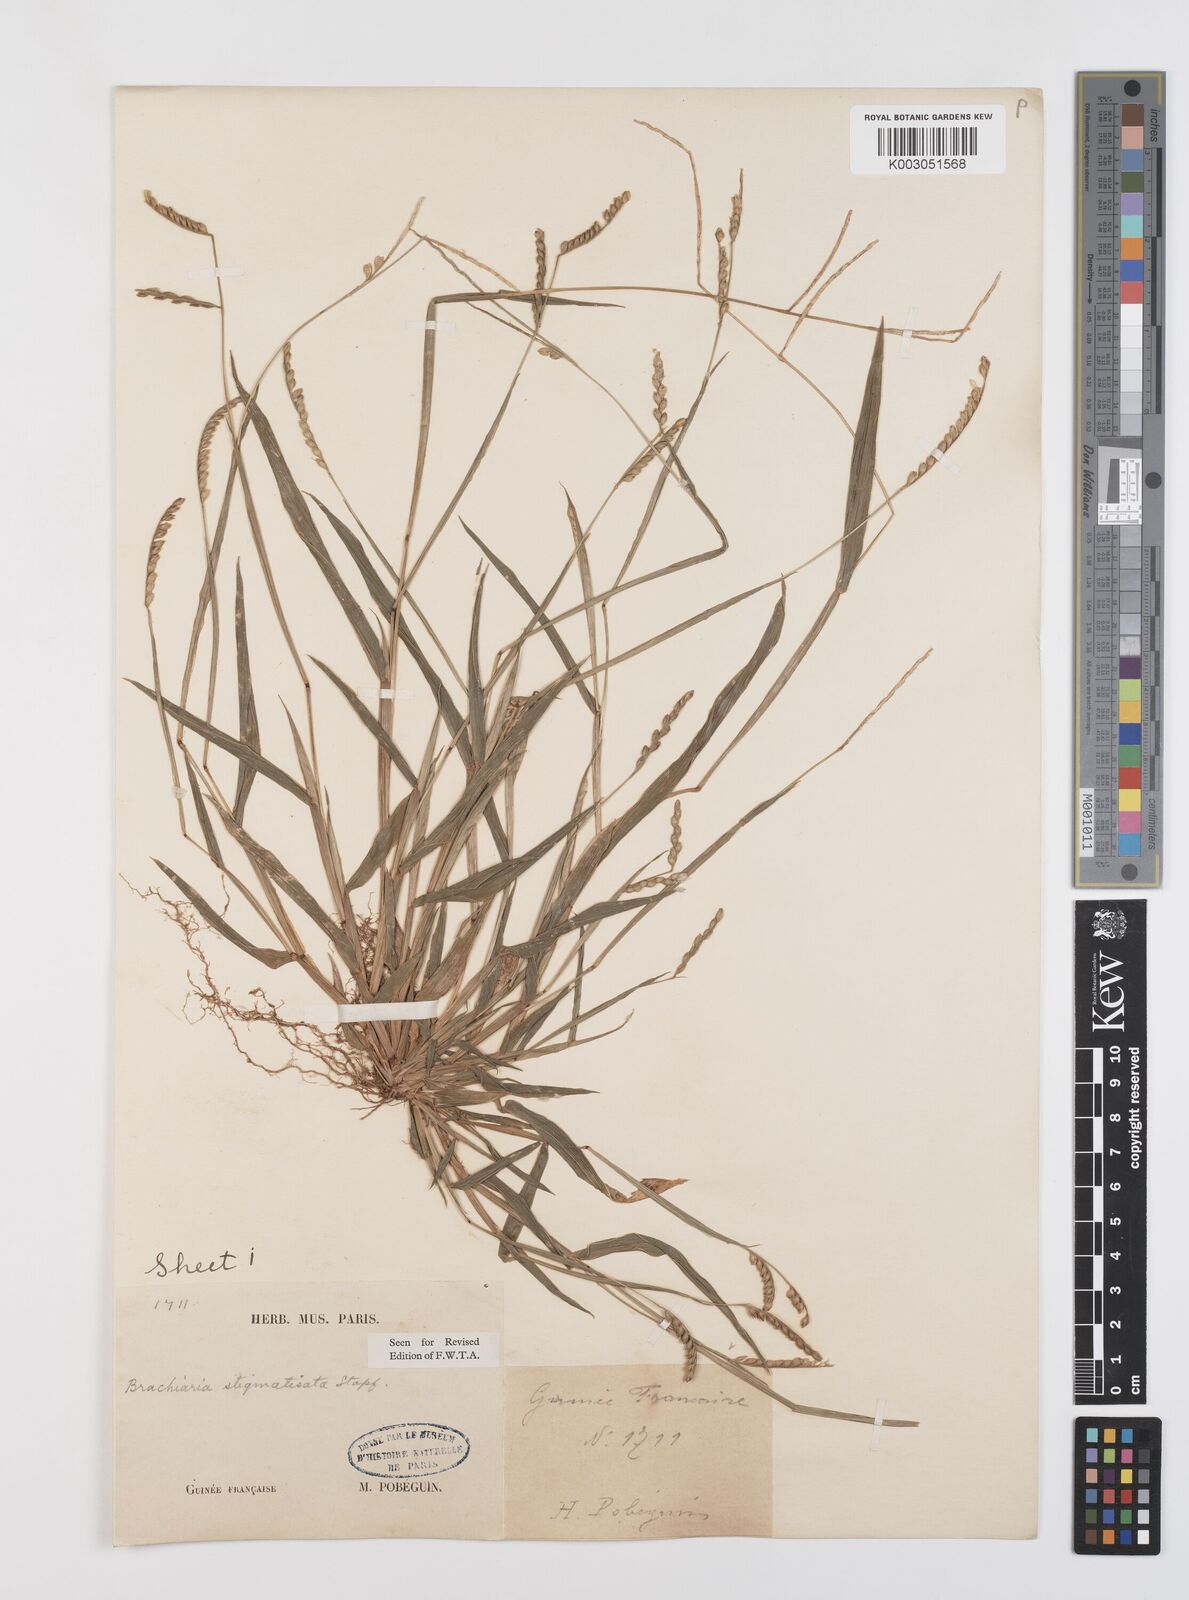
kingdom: Plantae
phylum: Tracheophyta
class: Liliopsida
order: Poales
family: Poaceae
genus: Urochloa
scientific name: Urochloa stigmatisata
